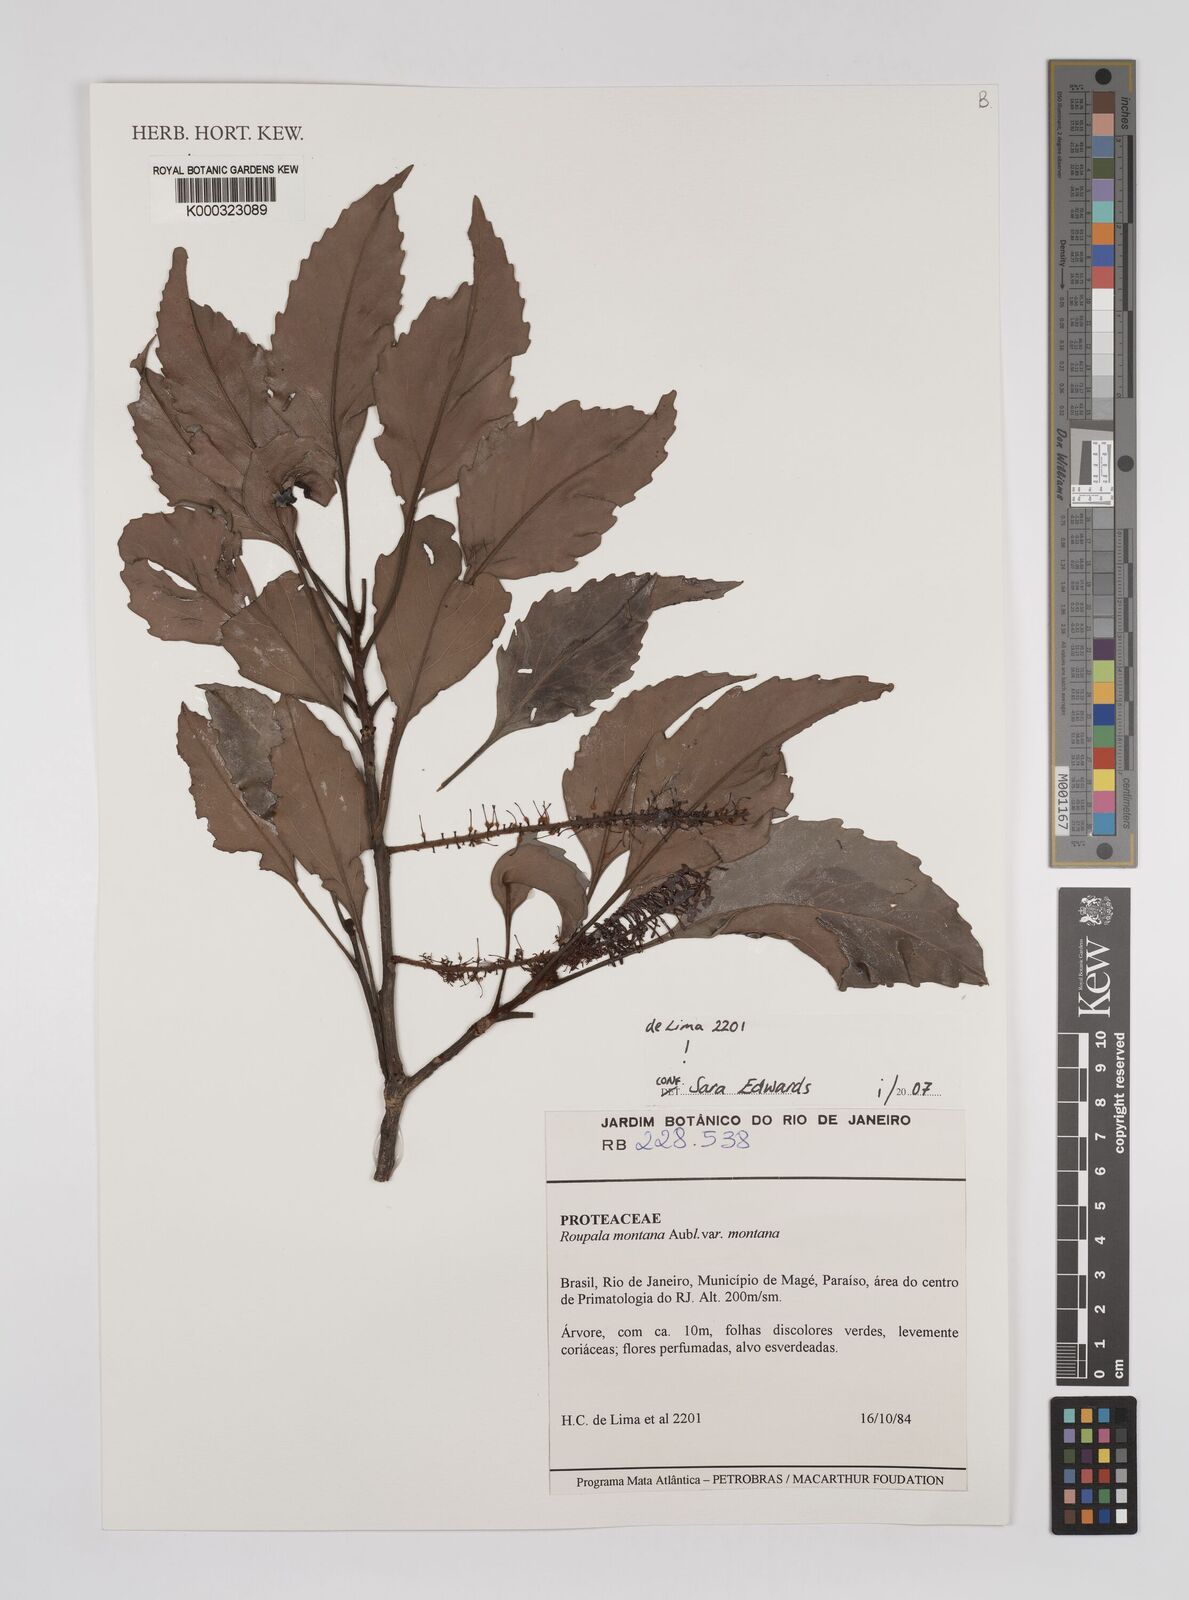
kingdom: Plantae
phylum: Tracheophyta
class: Magnoliopsida
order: Proteales
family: Proteaceae
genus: Roupala
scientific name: Roupala
